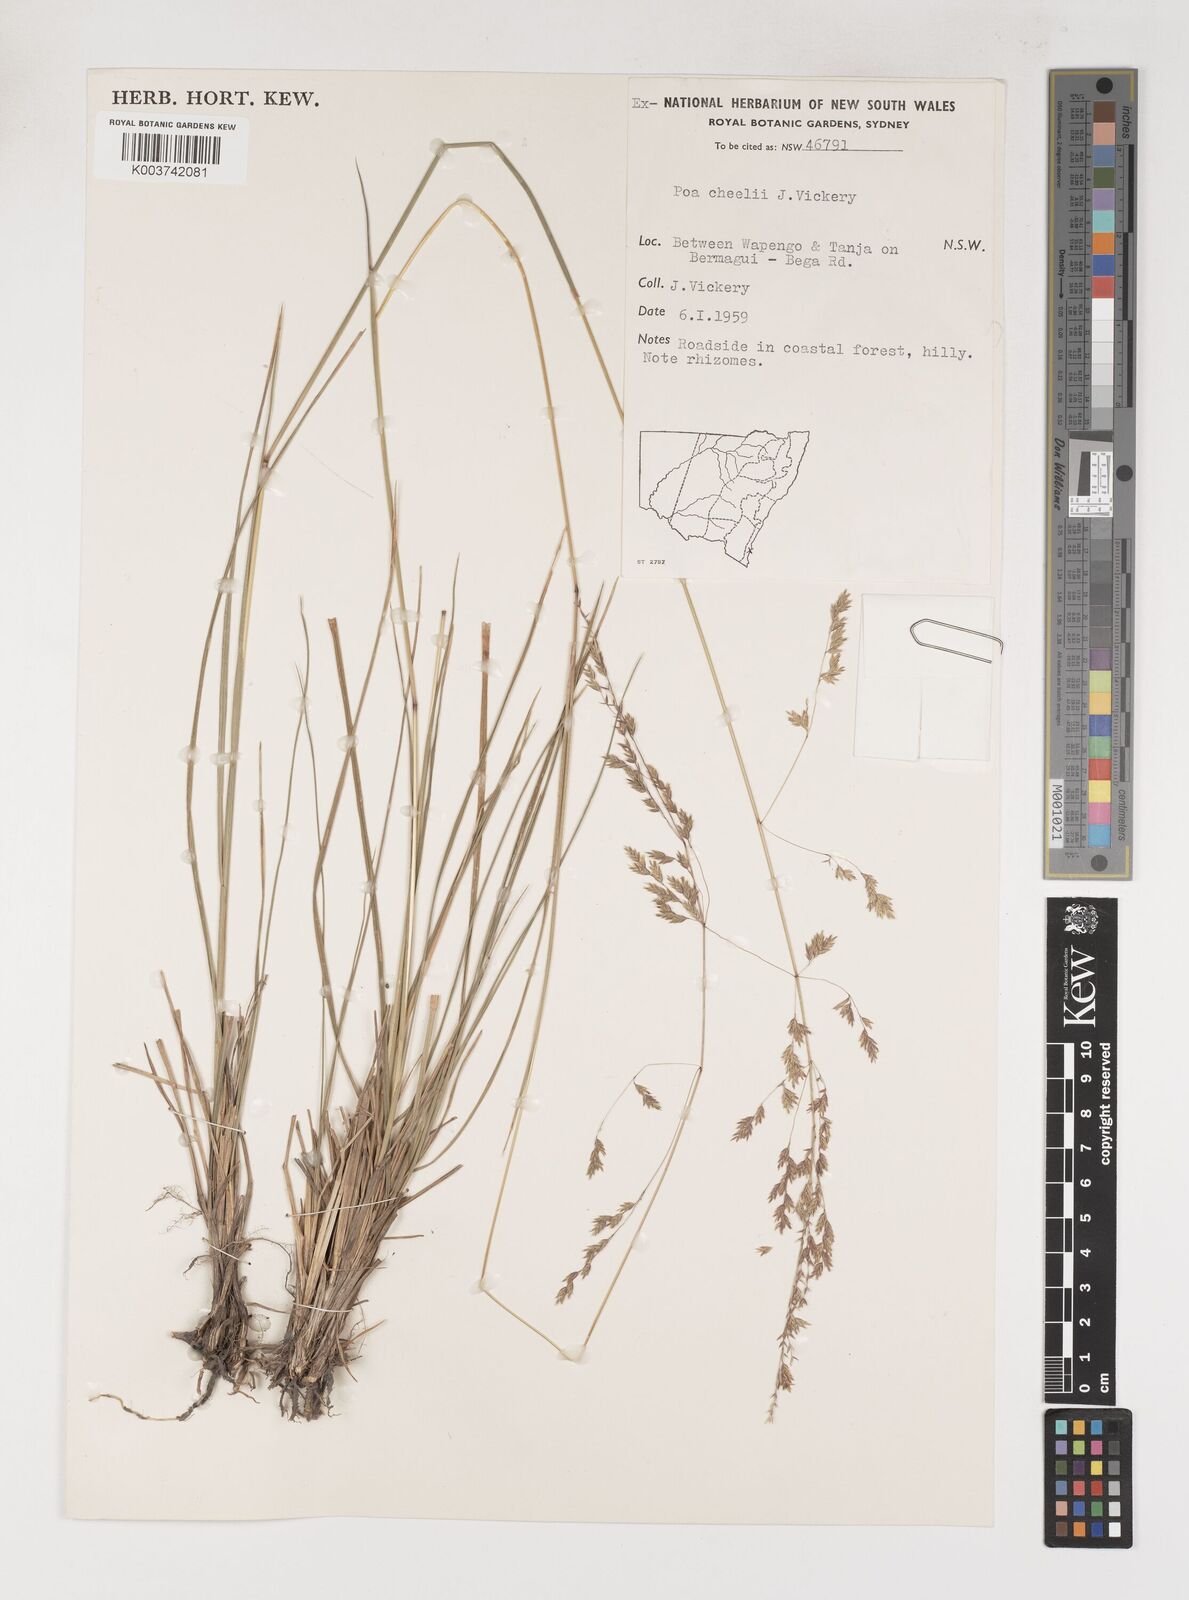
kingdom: Plantae
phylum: Tracheophyta
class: Liliopsida
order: Poales
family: Poaceae
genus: Poa
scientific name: Poa cheelii
